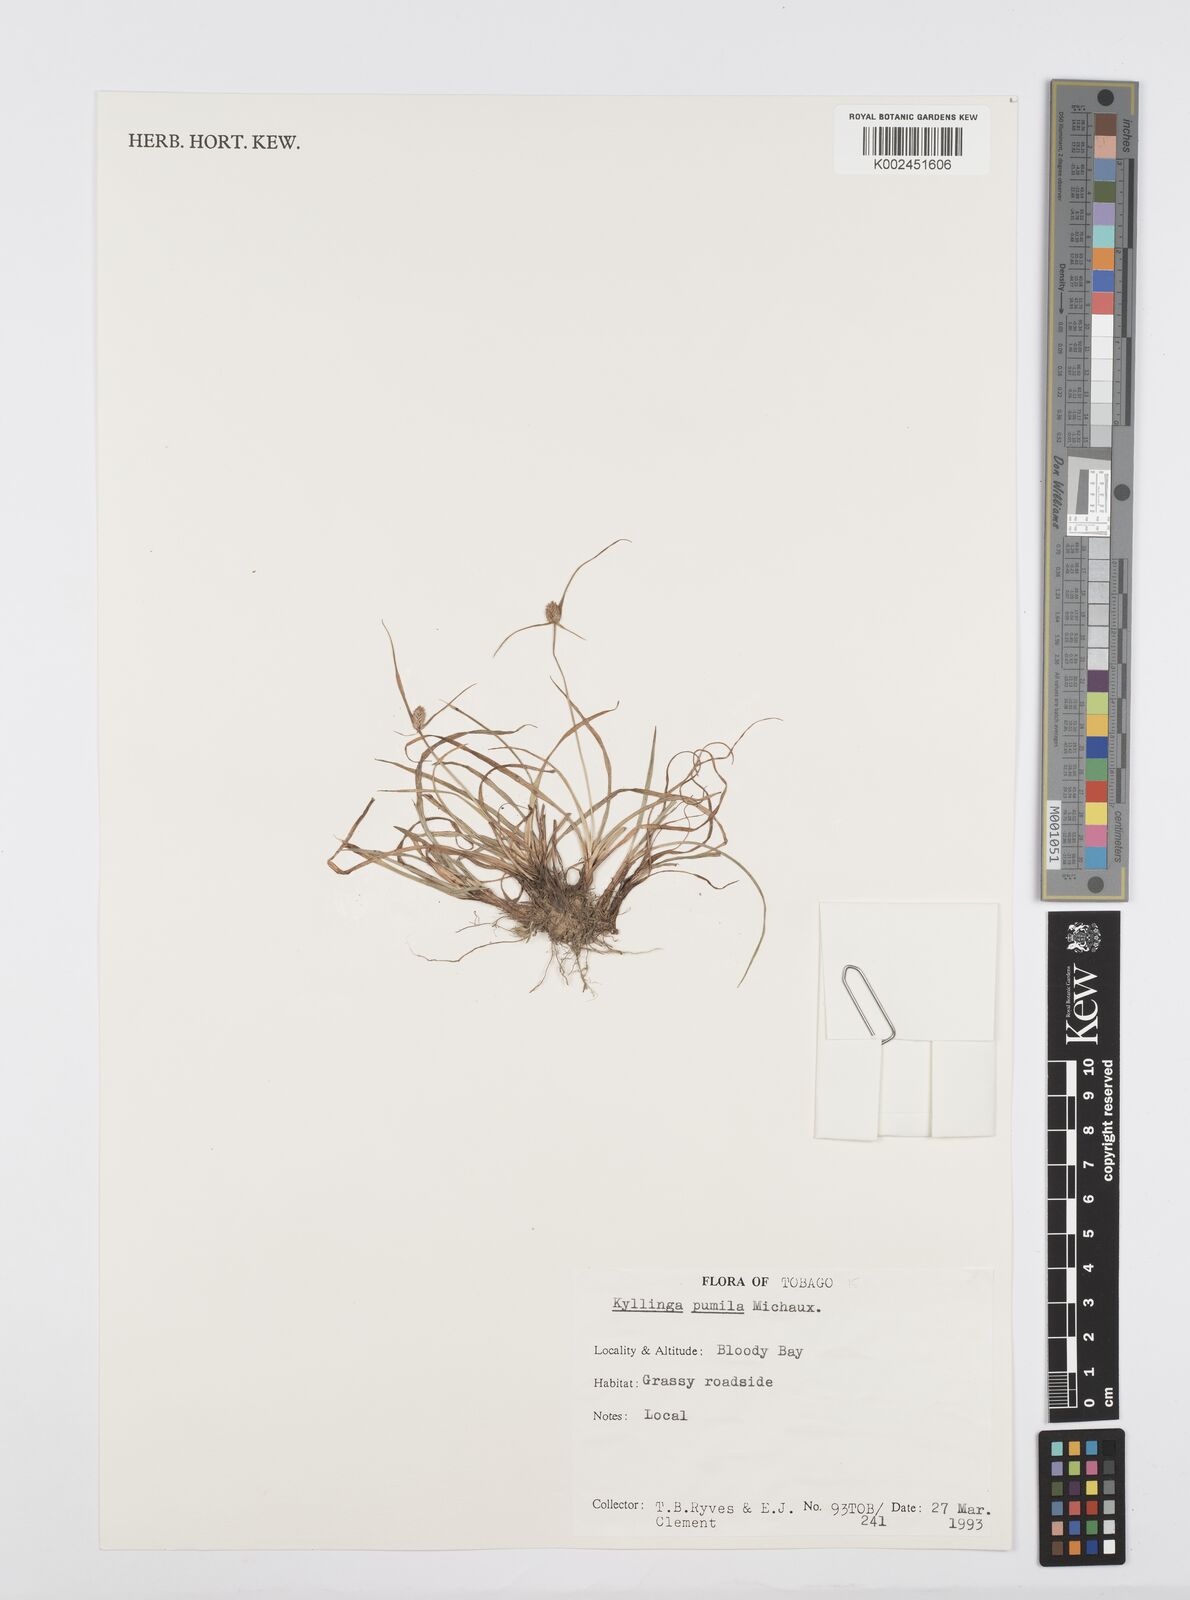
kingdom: Plantae
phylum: Tracheophyta
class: Liliopsida
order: Poales
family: Cyperaceae
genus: Cyperus
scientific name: Cyperus
